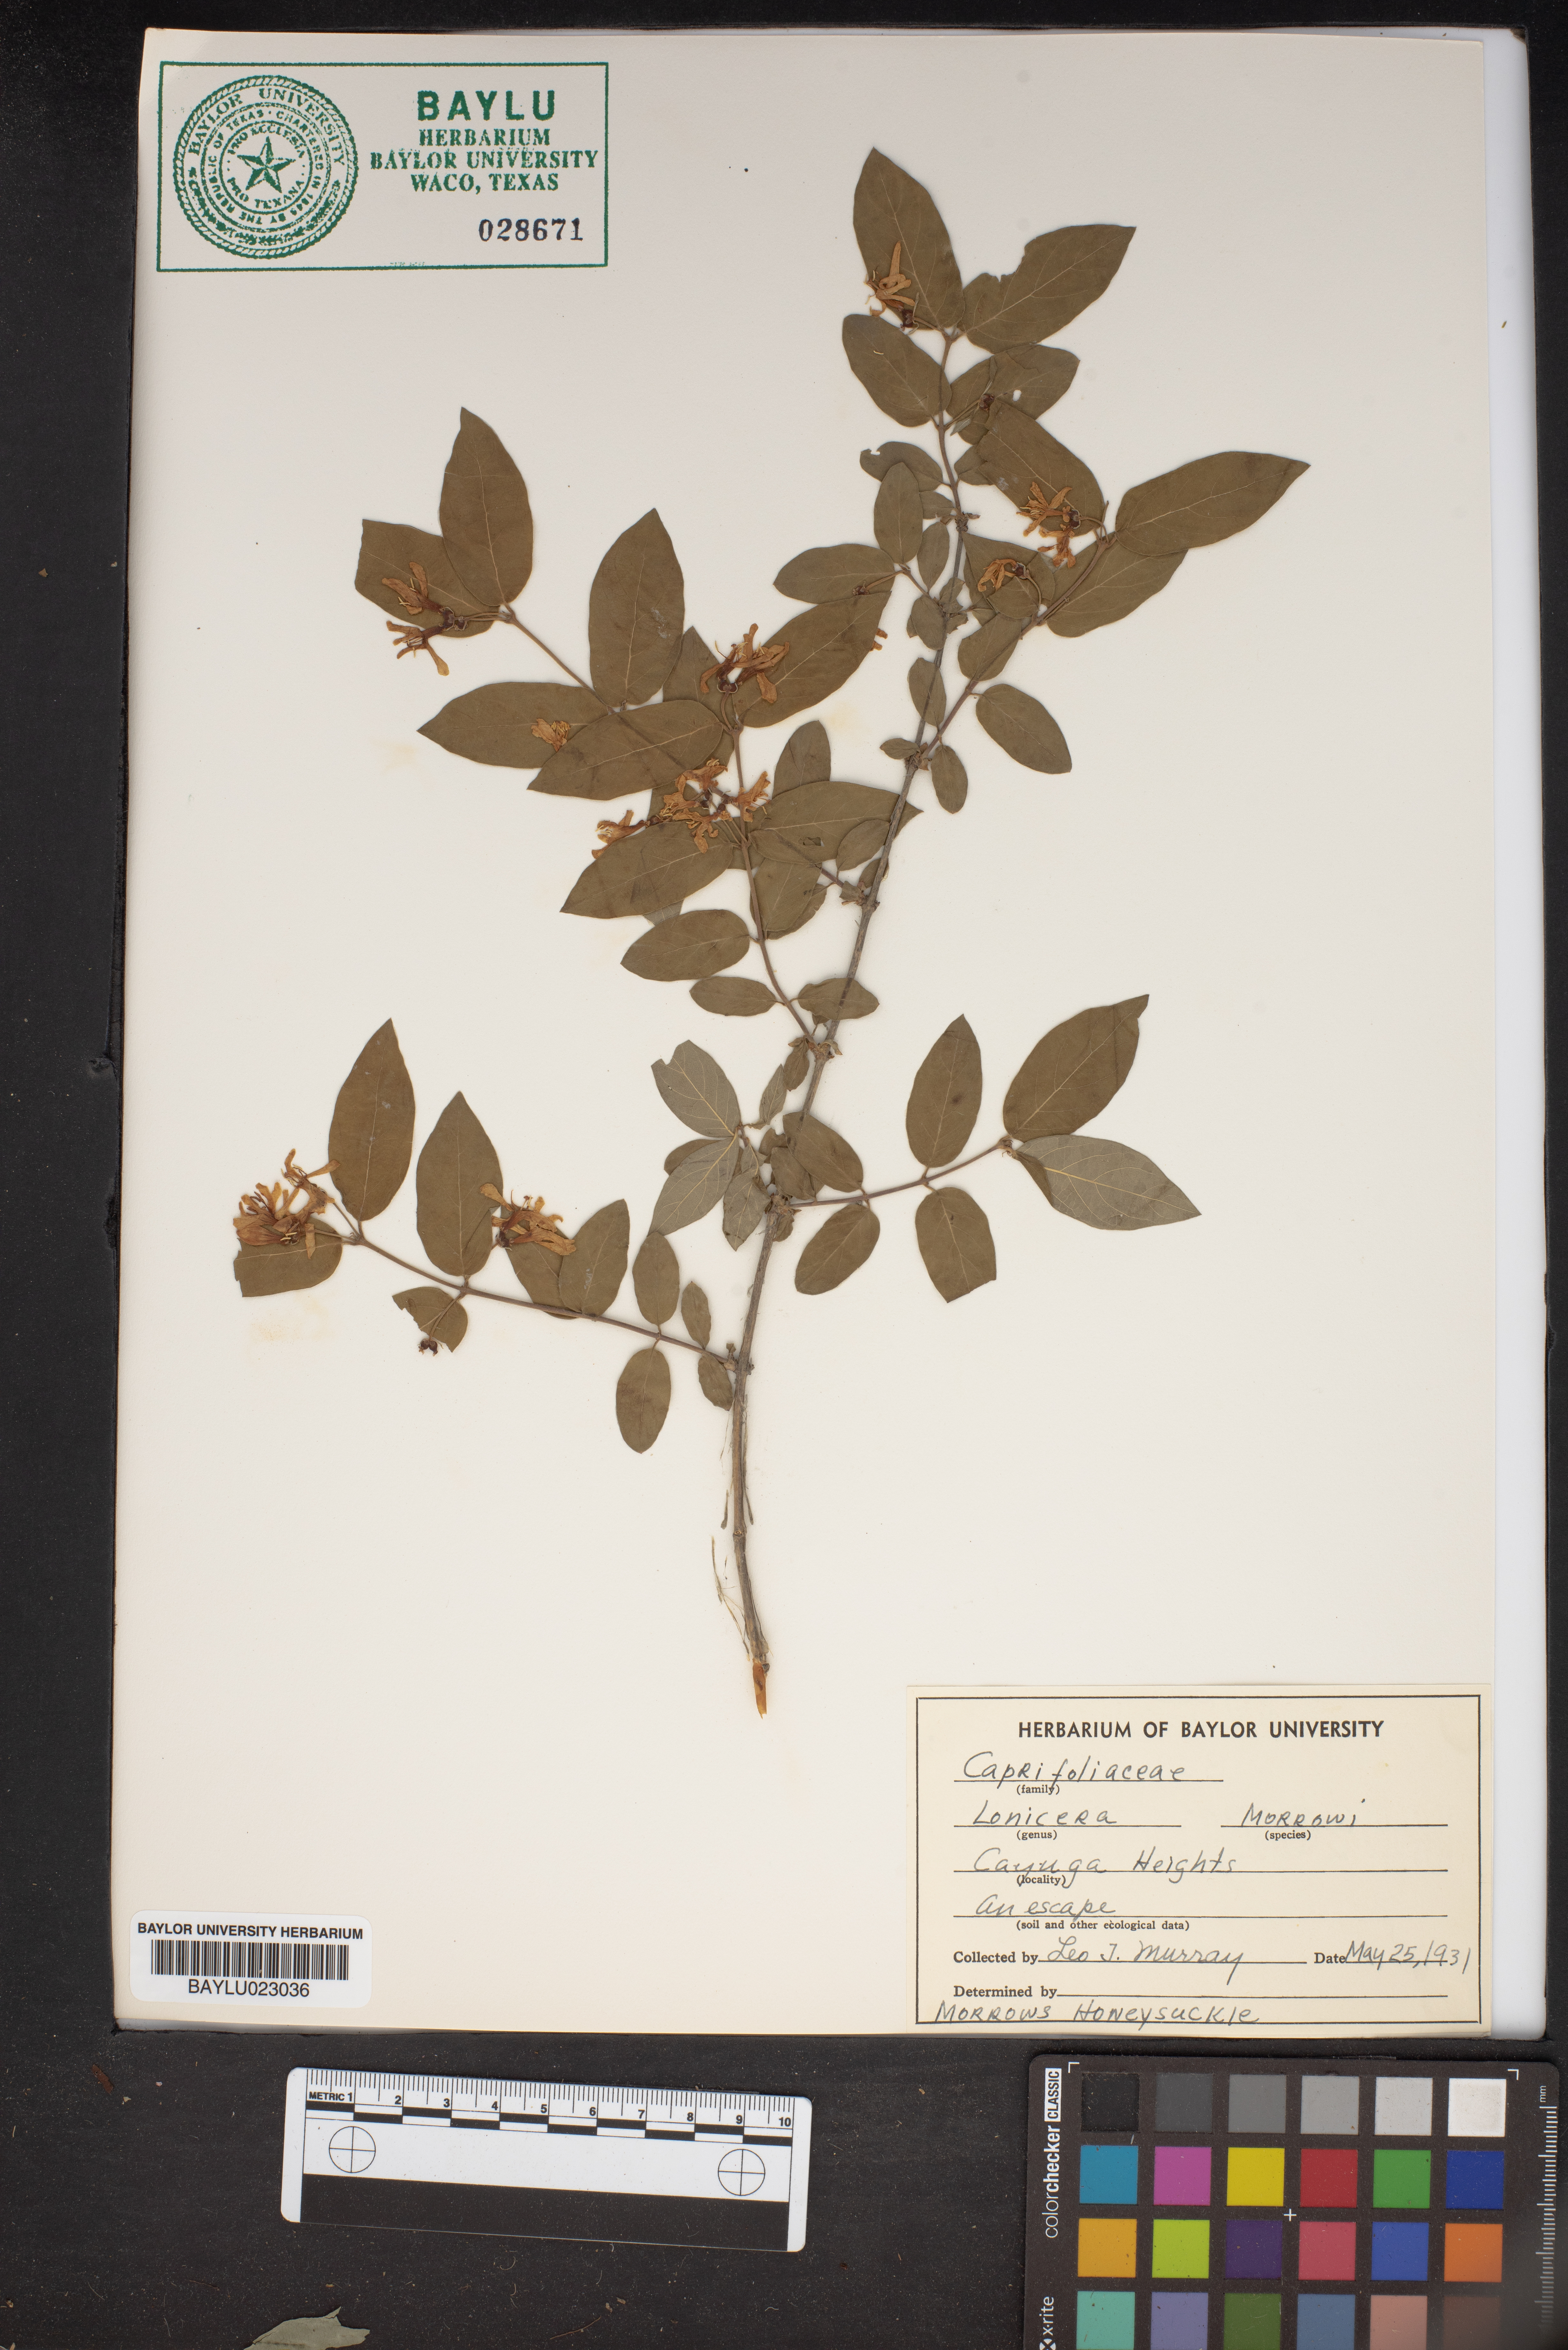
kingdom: Plantae
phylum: Tracheophyta
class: Magnoliopsida
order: Dipsacales
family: Caprifoliaceae
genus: Lonicera
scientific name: Lonicera morrowii
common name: Morrow's honeysuckle
